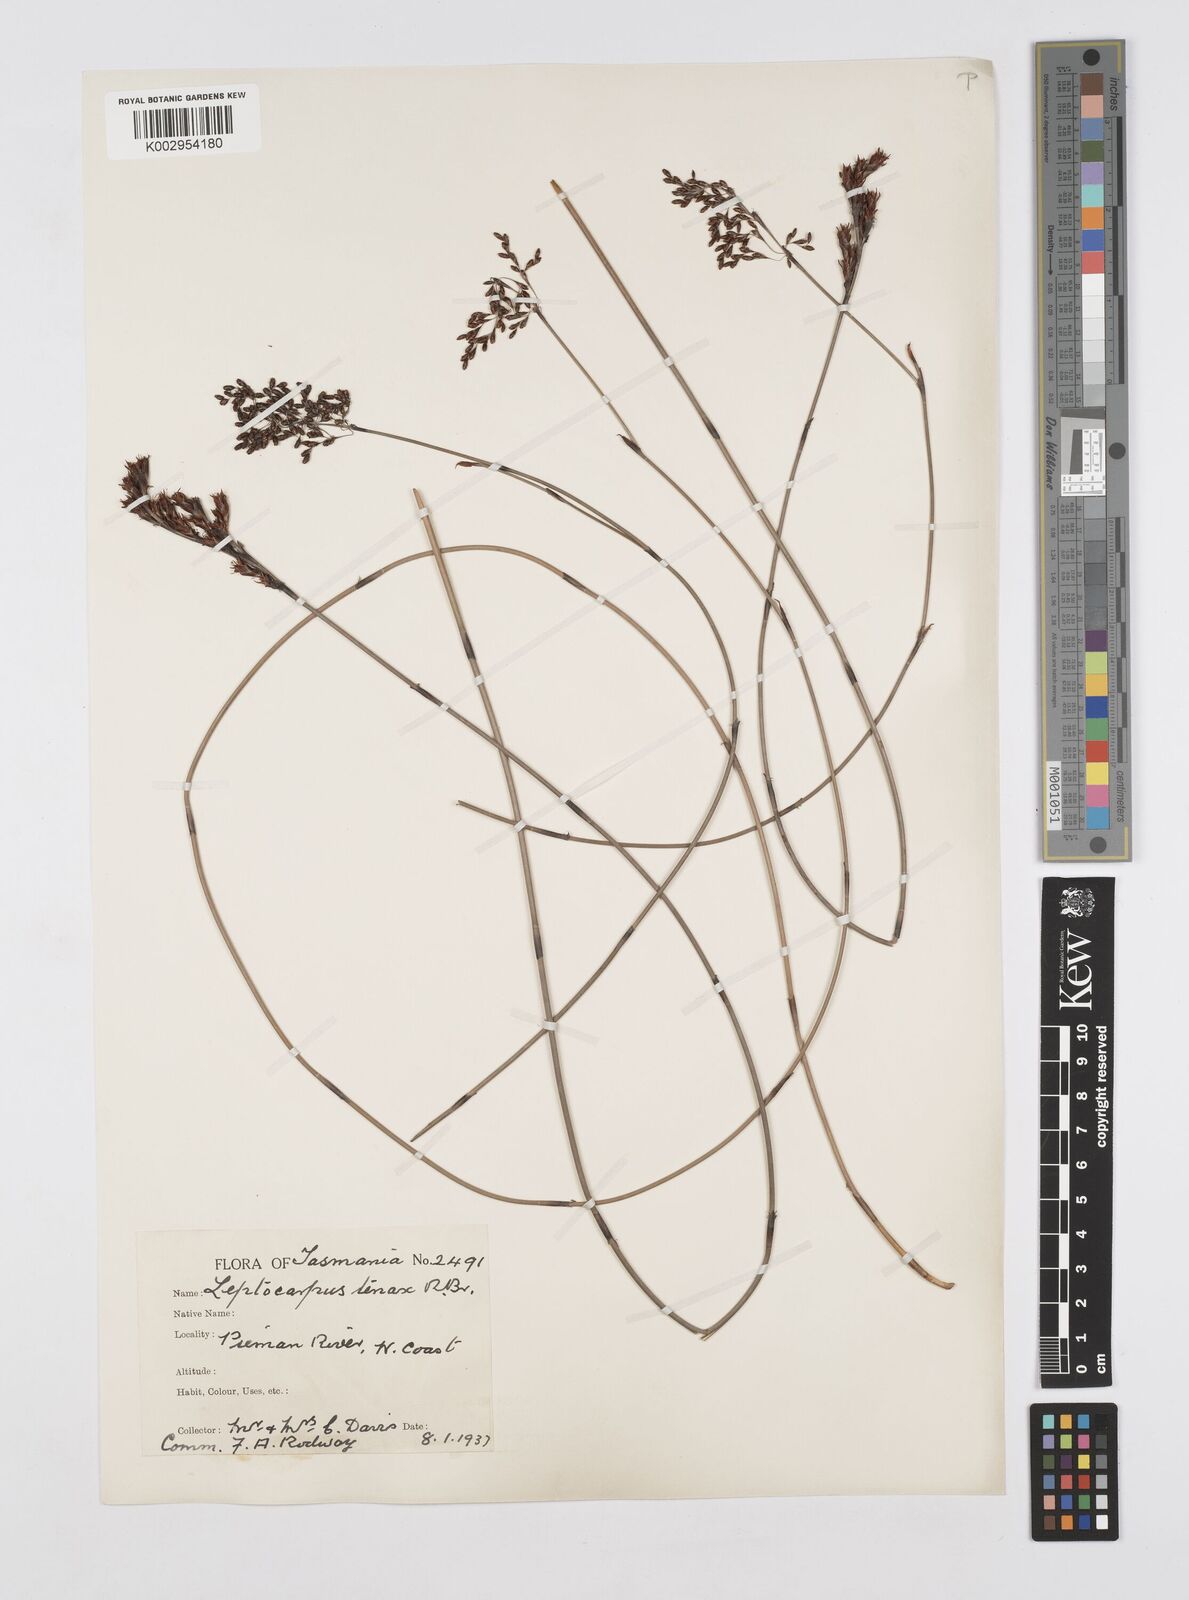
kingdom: Plantae
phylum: Tracheophyta
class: Liliopsida
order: Poales
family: Restionaceae
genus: Leptocarpus
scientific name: Leptocarpus tenax
